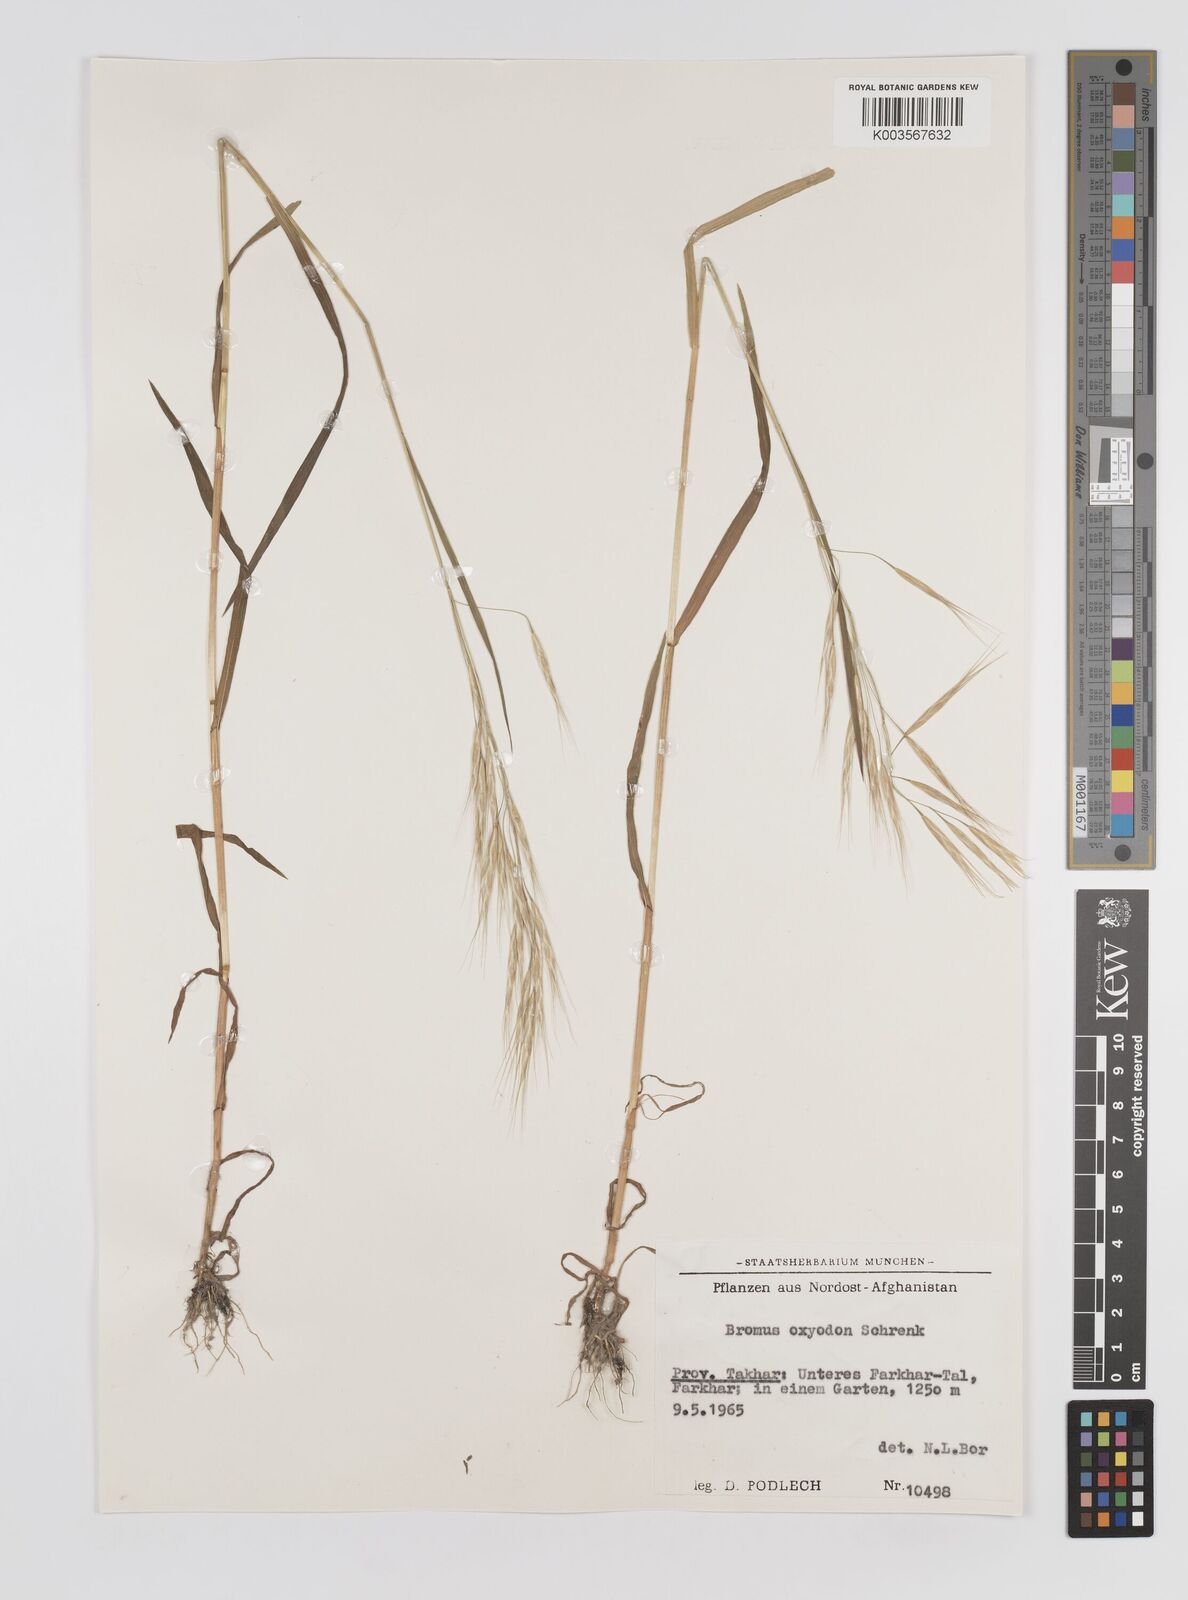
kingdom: Plantae
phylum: Tracheophyta
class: Liliopsida
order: Poales
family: Poaceae
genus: Bromus
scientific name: Bromus oxyodon
